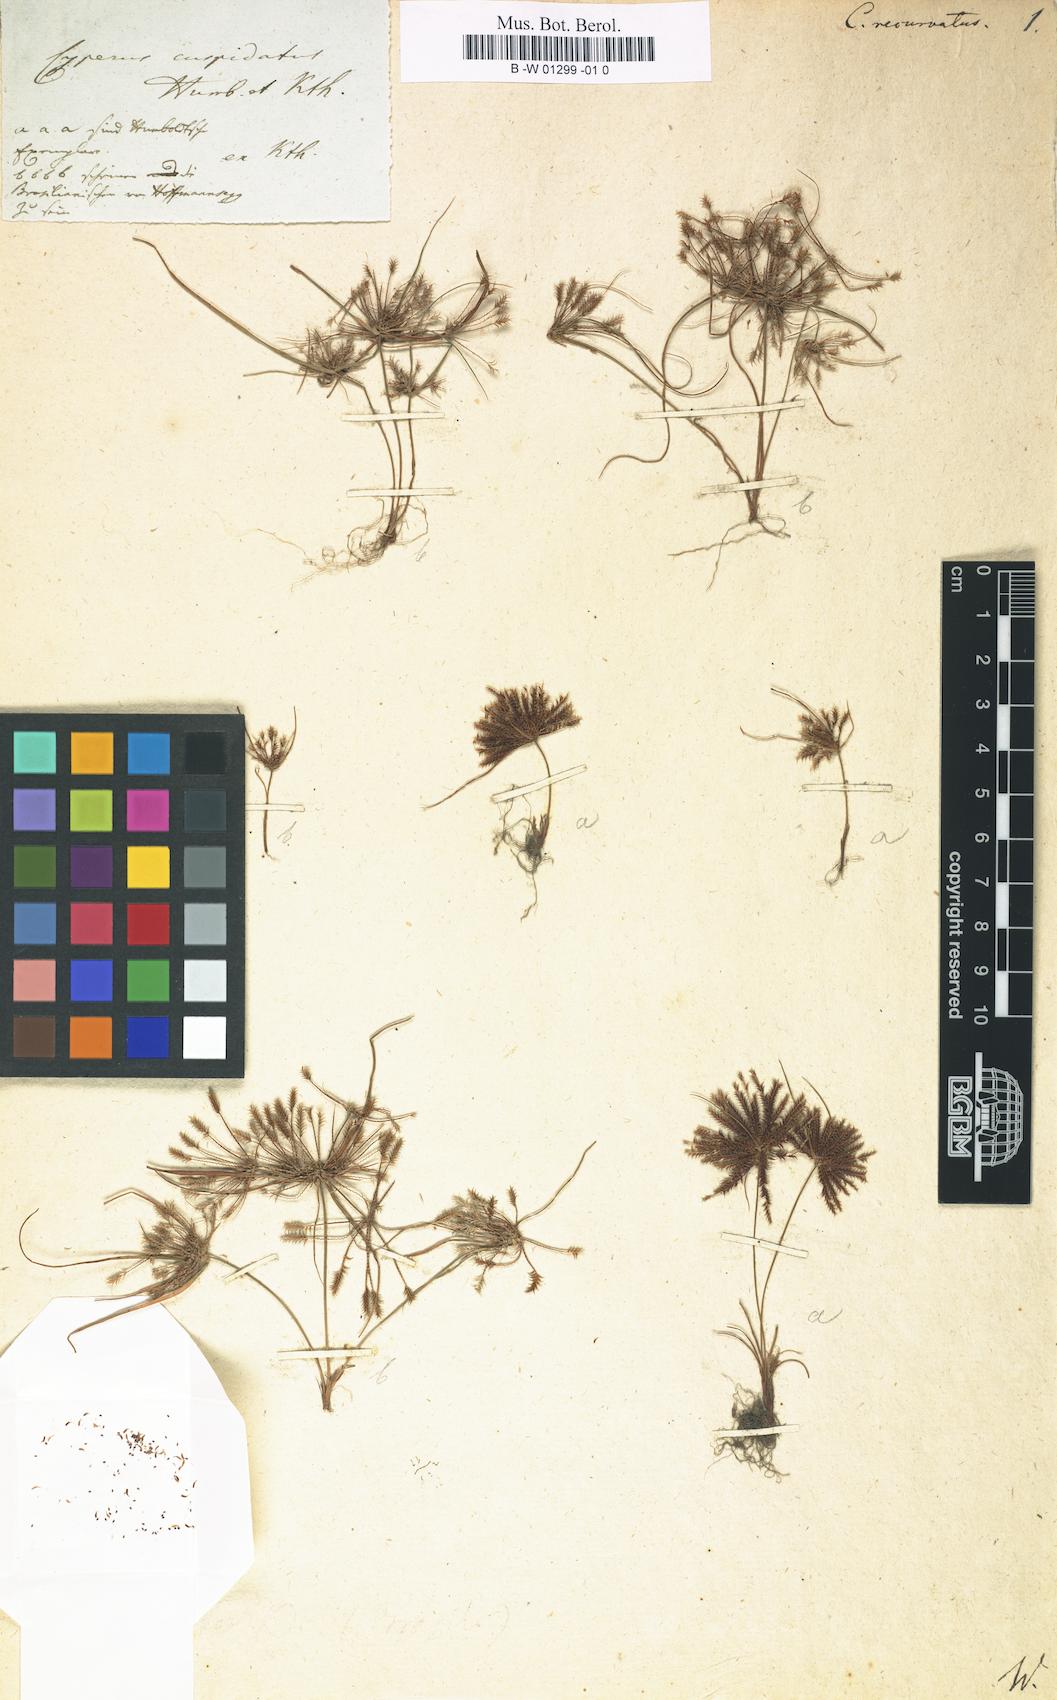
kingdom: Plantae
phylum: Tracheophyta
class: Liliopsida
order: Poales
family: Cyperaceae
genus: Cyperus
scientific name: Cyperus cuspidatus
